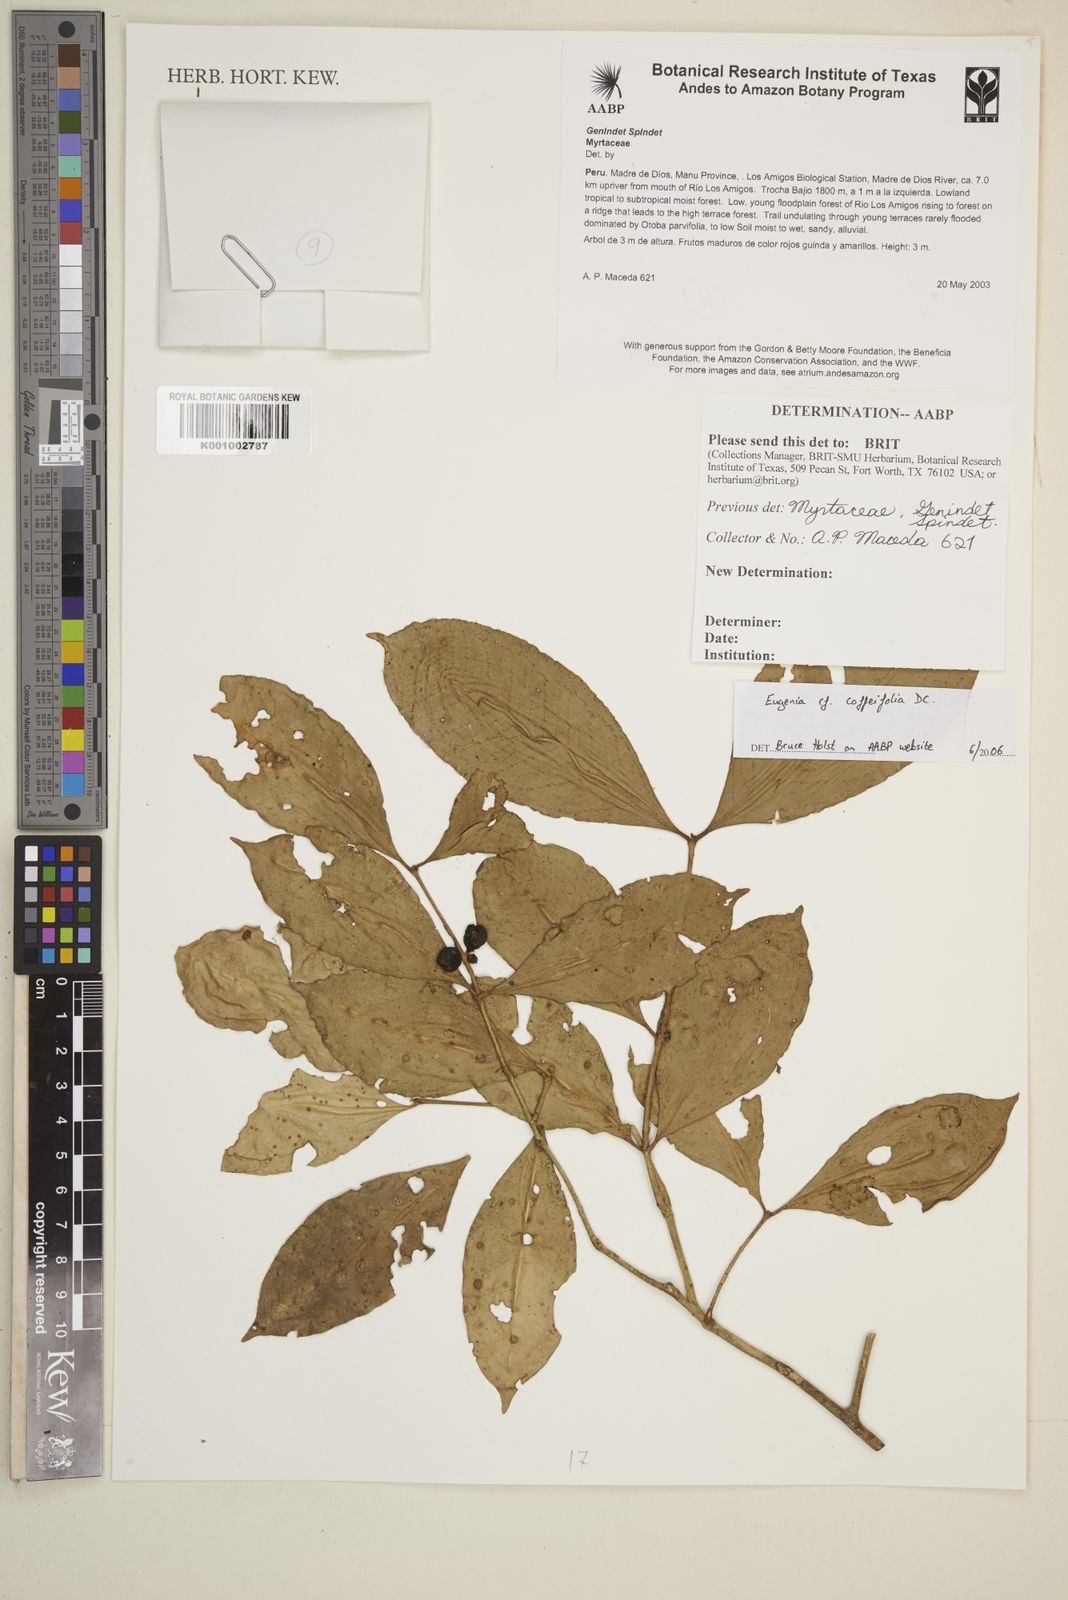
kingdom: Plantae
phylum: Tracheophyta
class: Magnoliopsida
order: Myrtales
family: Myrtaceae
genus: Eugenia
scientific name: Eugenia coffeifolia
